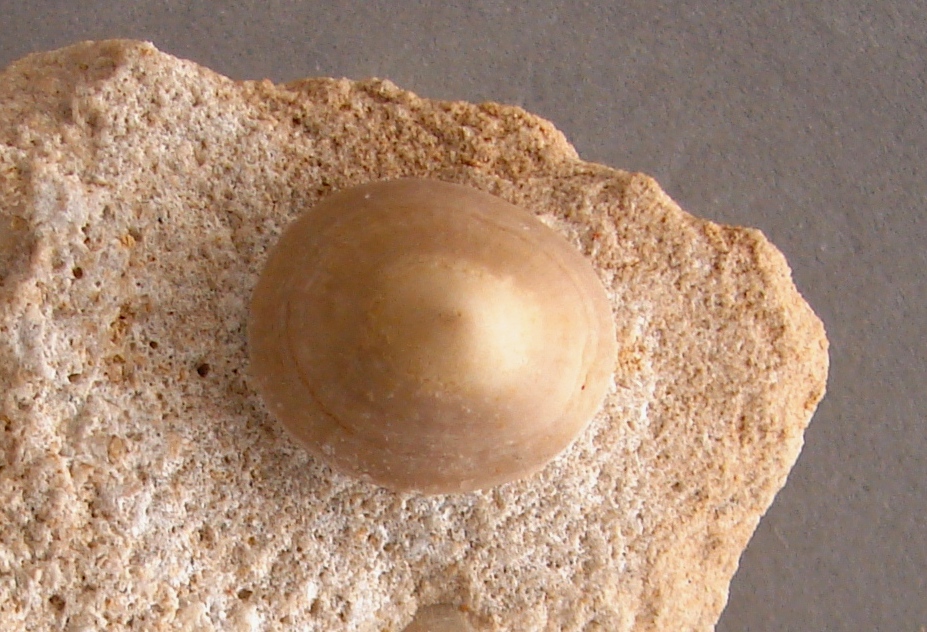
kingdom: Animalia
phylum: Mollusca
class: Gastropoda
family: Acmaeadae
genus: Scurriopsis
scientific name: Scurriopsis Patella schmidtii
